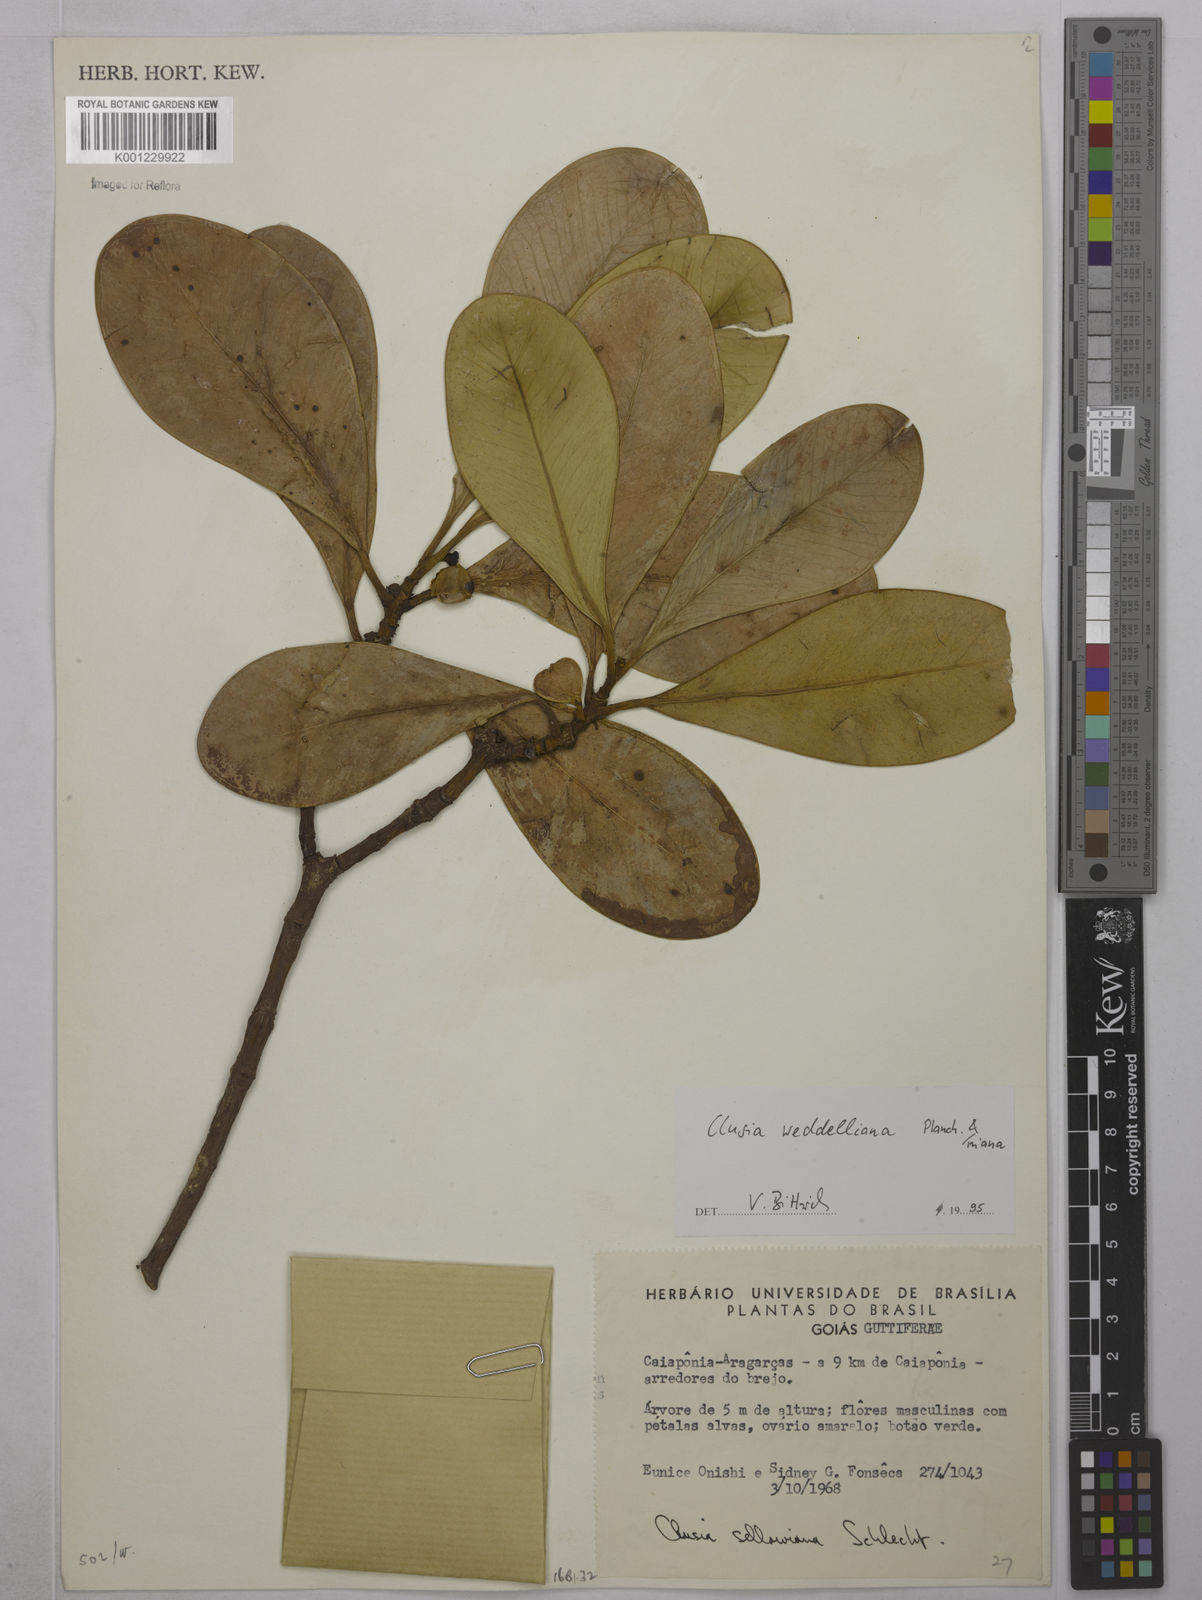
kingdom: Plantae
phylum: Tracheophyta
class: Magnoliopsida
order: Malpighiales
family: Clusiaceae
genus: Clusia
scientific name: Clusia weddelliana
